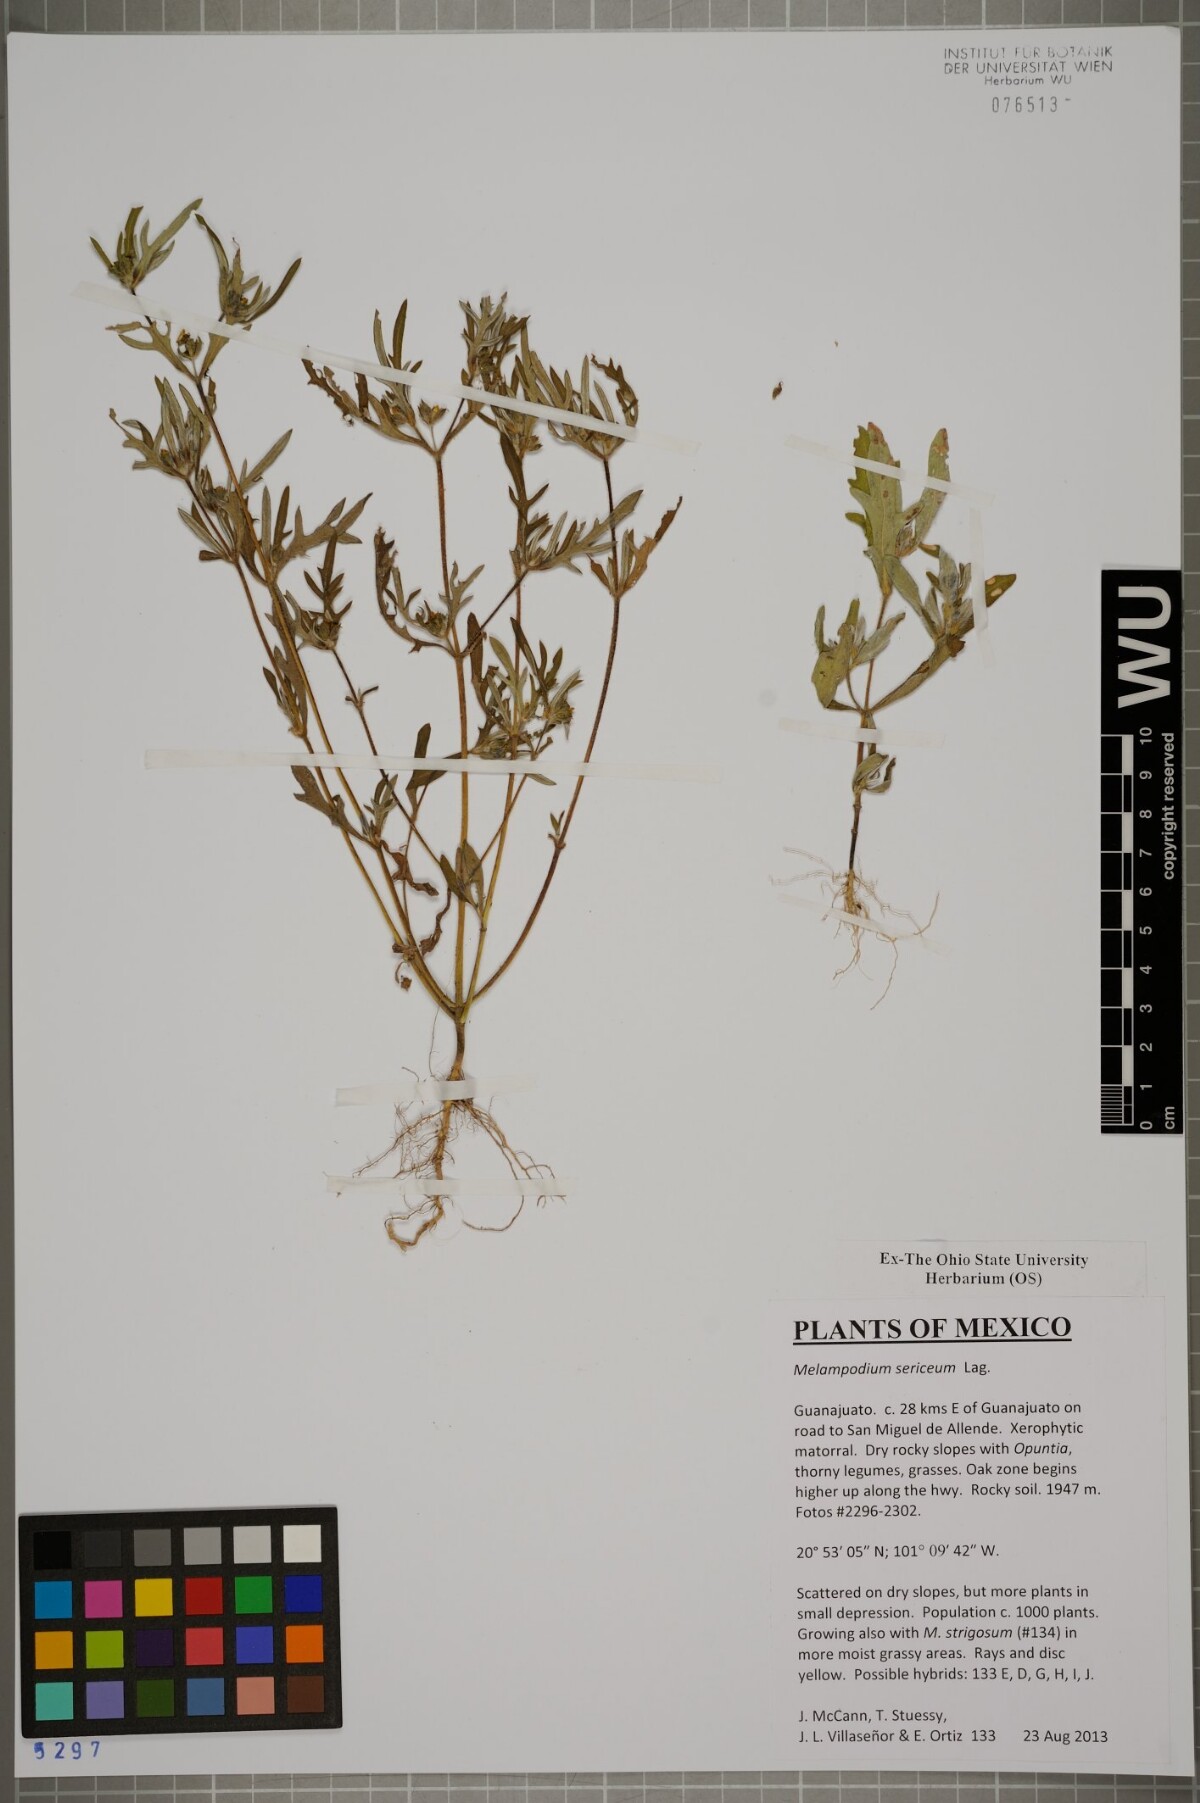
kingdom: Plantae
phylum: Tracheophyta
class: Magnoliopsida
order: Asterales
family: Asteraceae
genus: Melampodium
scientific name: Melampodium sericeum
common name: Rough blackfoot
